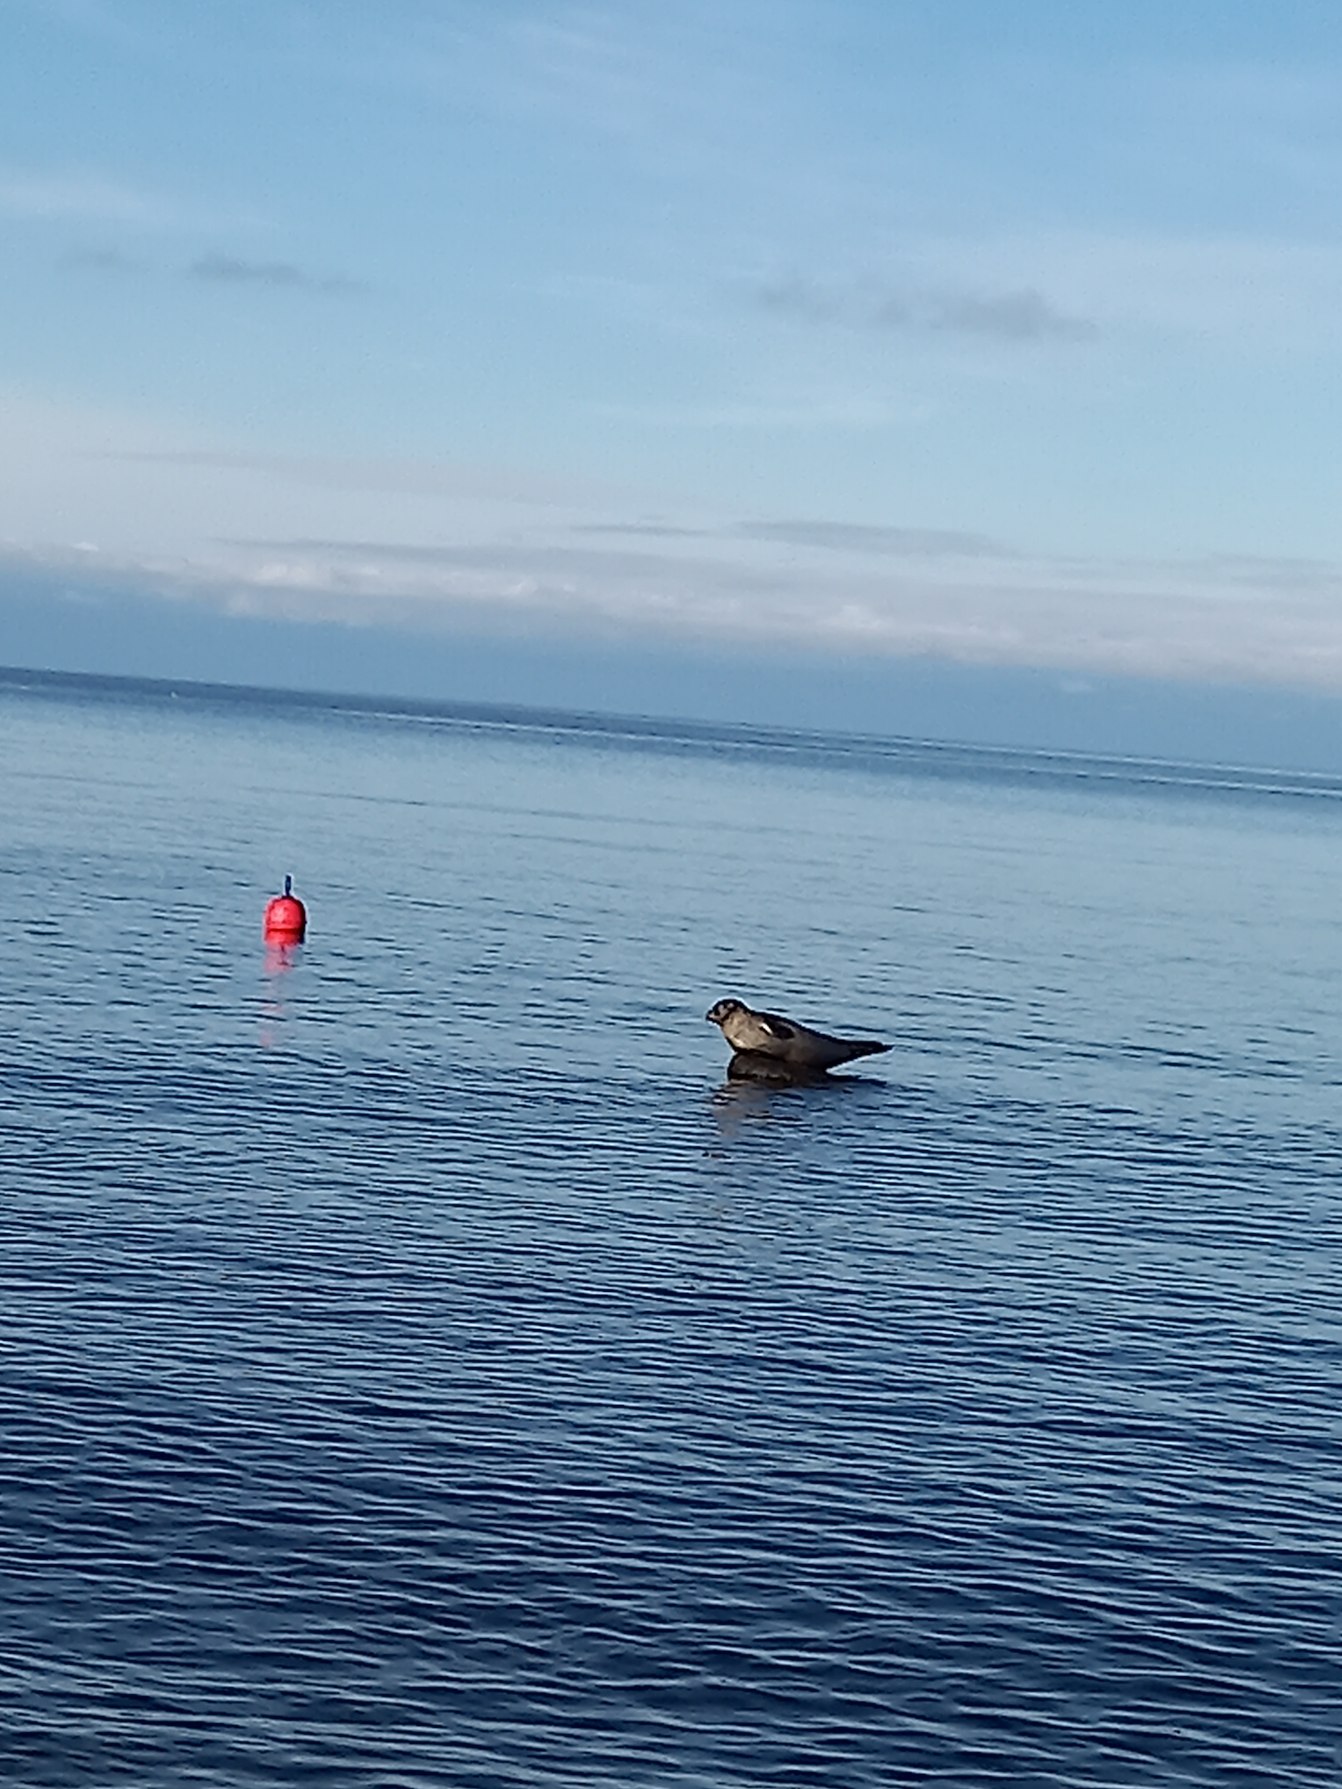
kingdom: Animalia
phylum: Chordata
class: Mammalia
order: Carnivora
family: Phocidae
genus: Phoca
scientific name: Phoca vitulina
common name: Spættet sæl
